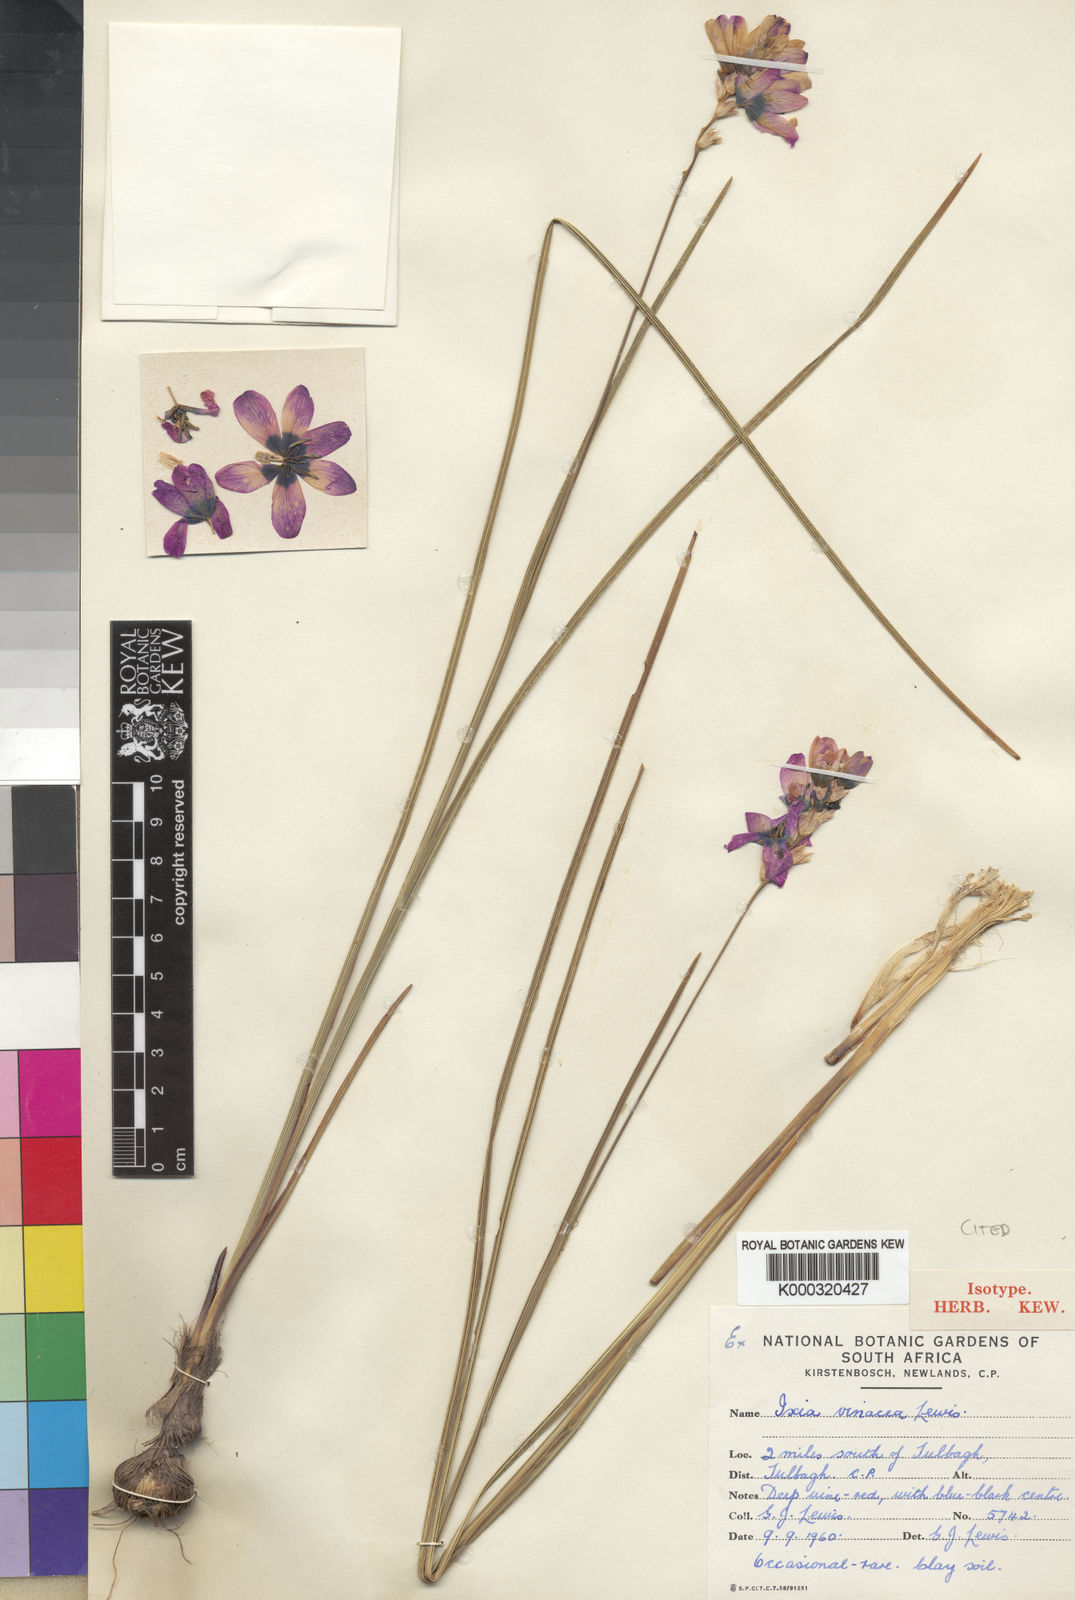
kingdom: Plantae
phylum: Tracheophyta
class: Liliopsida
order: Asparagales
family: Iridaceae
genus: Ixia
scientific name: Ixia vinacea
